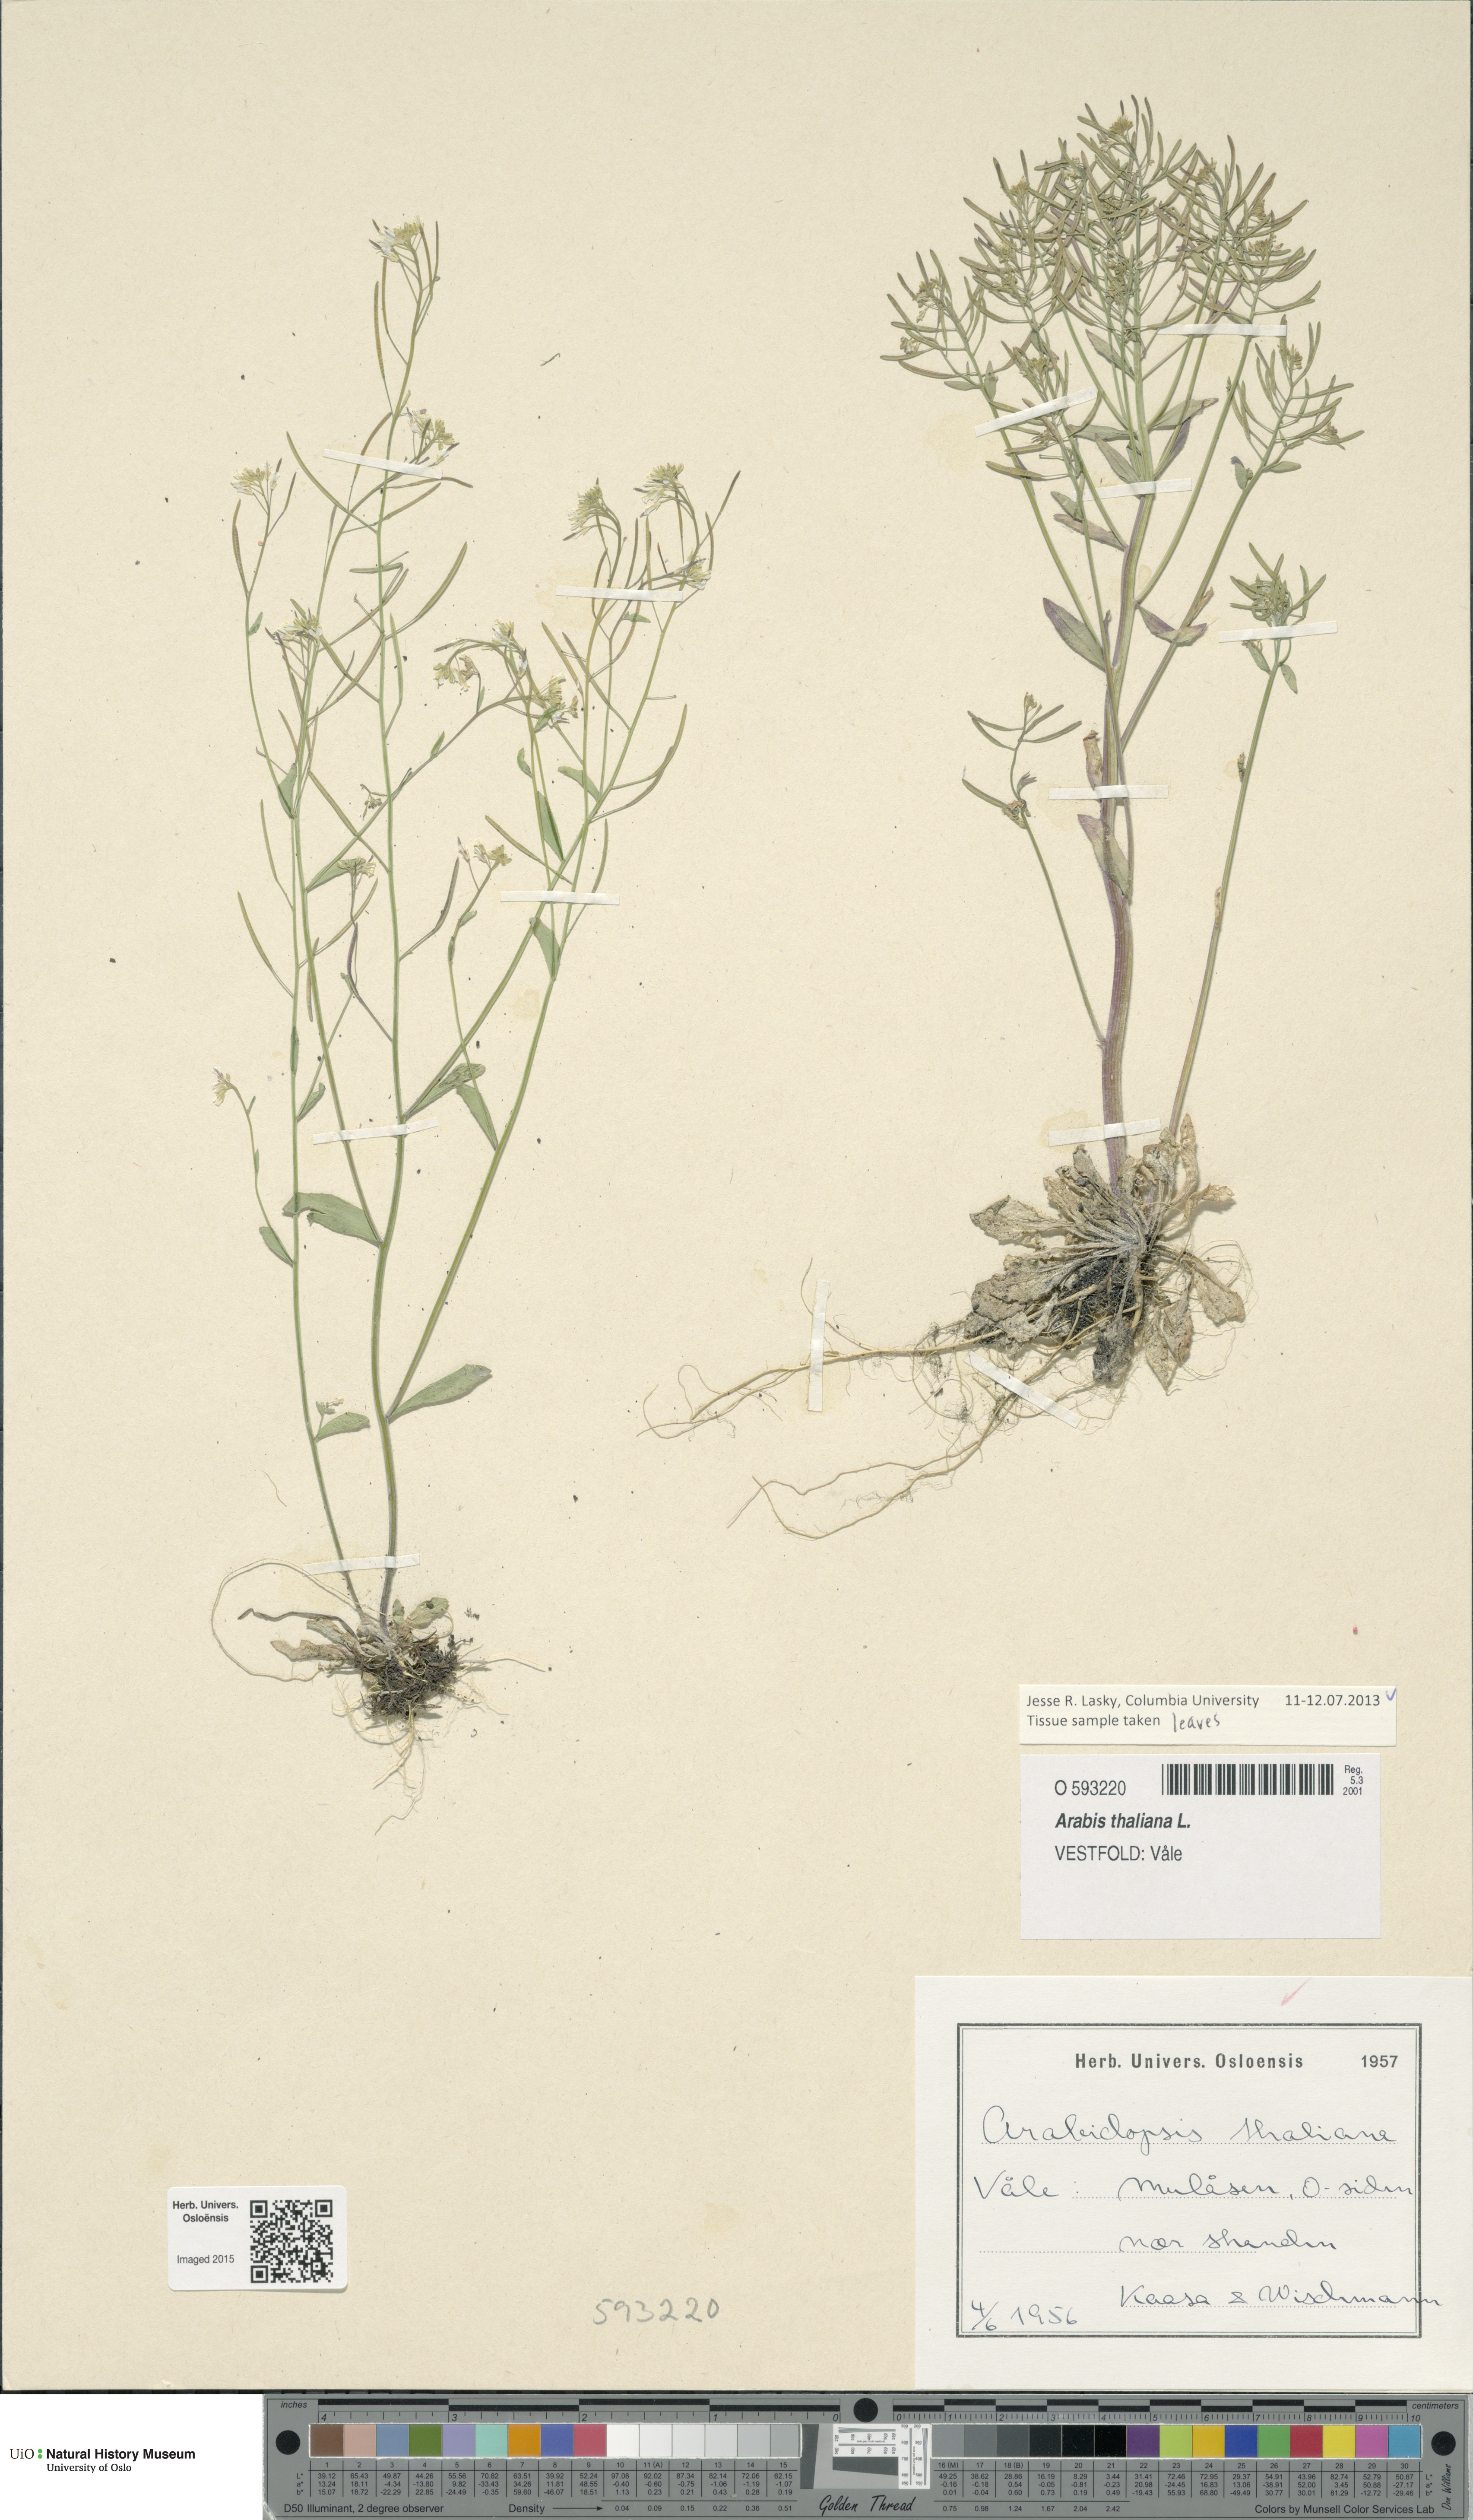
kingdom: Plantae
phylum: Tracheophyta
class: Magnoliopsida
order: Brassicales
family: Brassicaceae
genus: Arabidopsis
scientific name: Arabidopsis thaliana
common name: Thale cress
